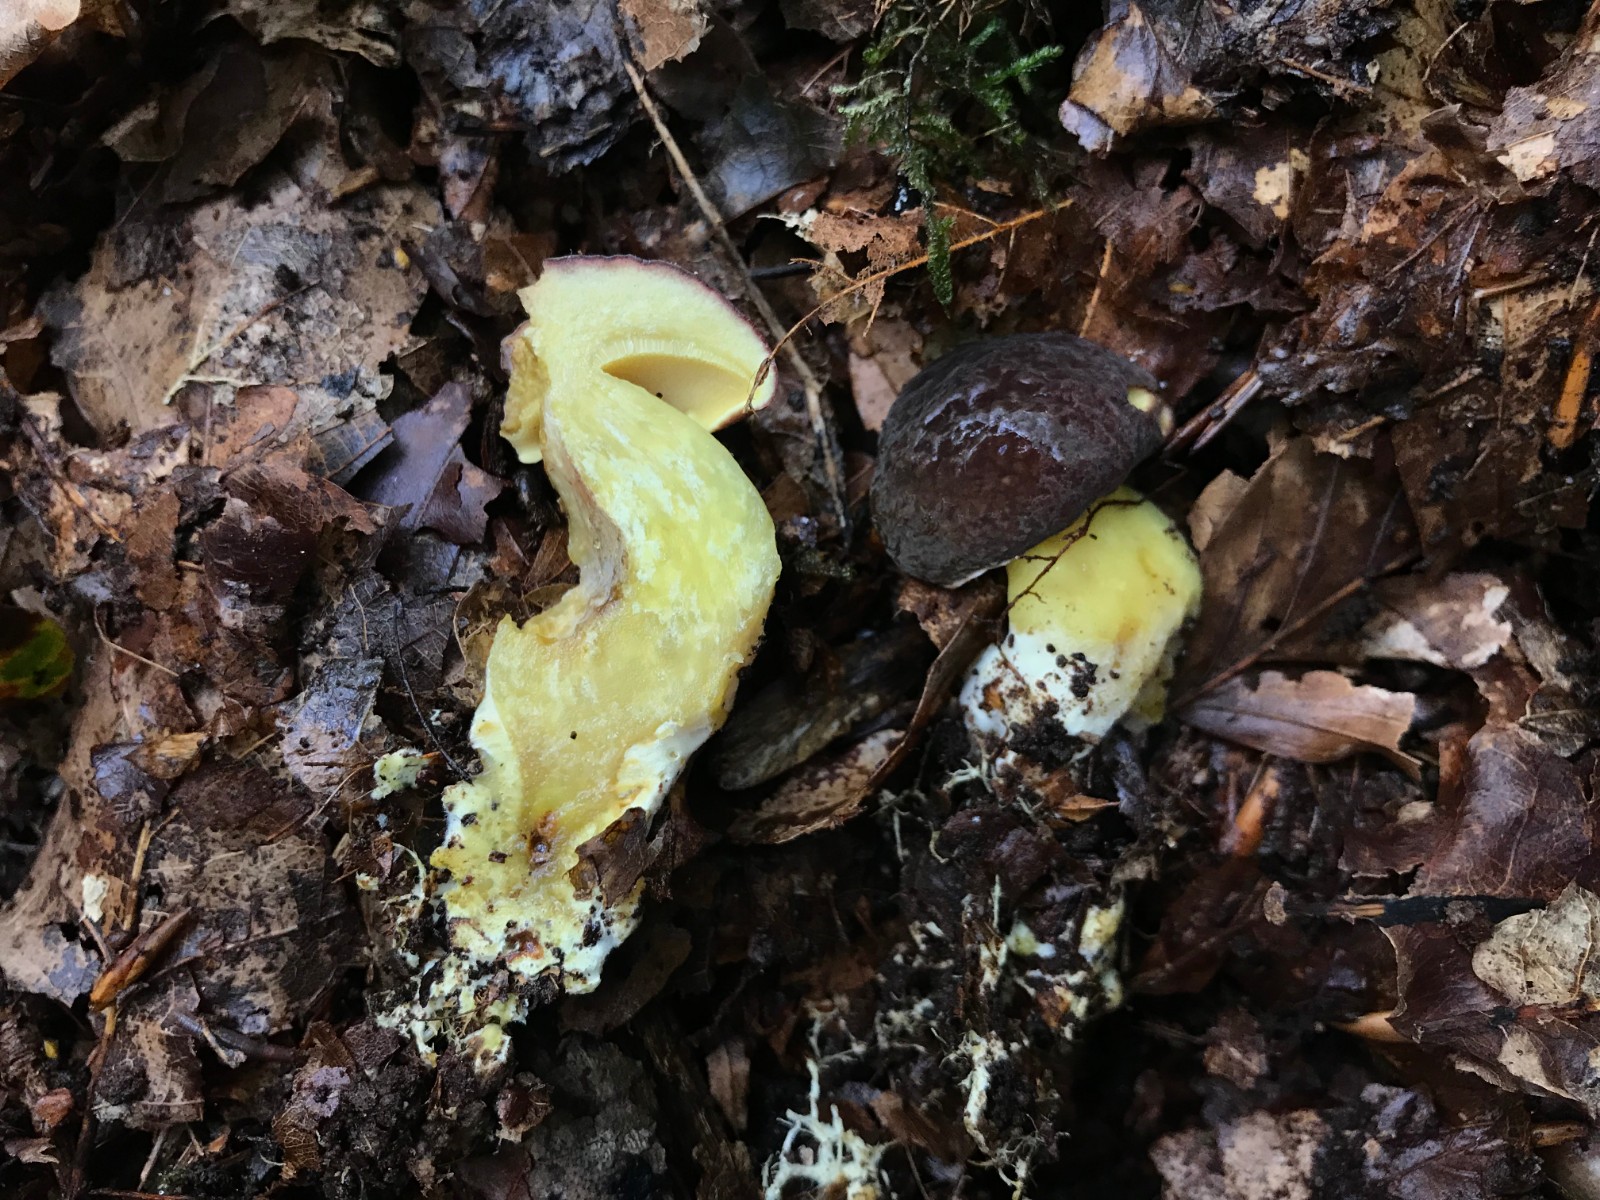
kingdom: Fungi
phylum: Basidiomycota
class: Agaricomycetes
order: Boletales
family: Boletaceae
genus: Xerocomellus
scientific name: Xerocomellus pruinatus
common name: dugget rørhat
